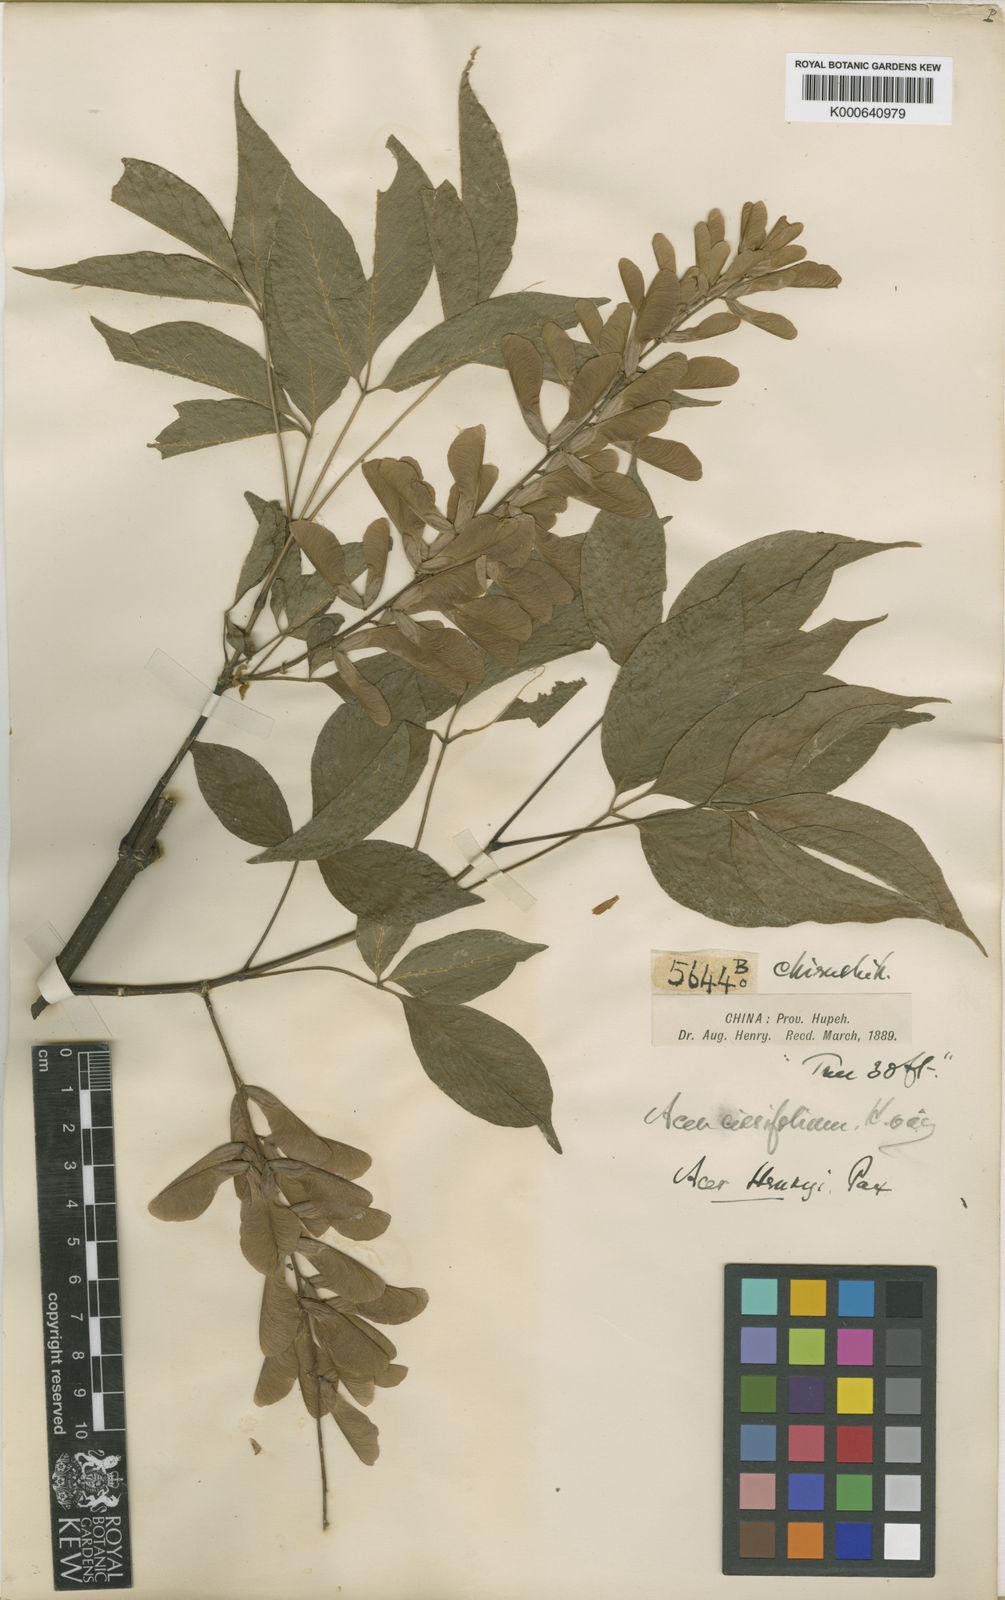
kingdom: Plantae
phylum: Tracheophyta
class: Magnoliopsida
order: Sapindales
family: Sapindaceae
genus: Acer
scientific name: Acer henryi
